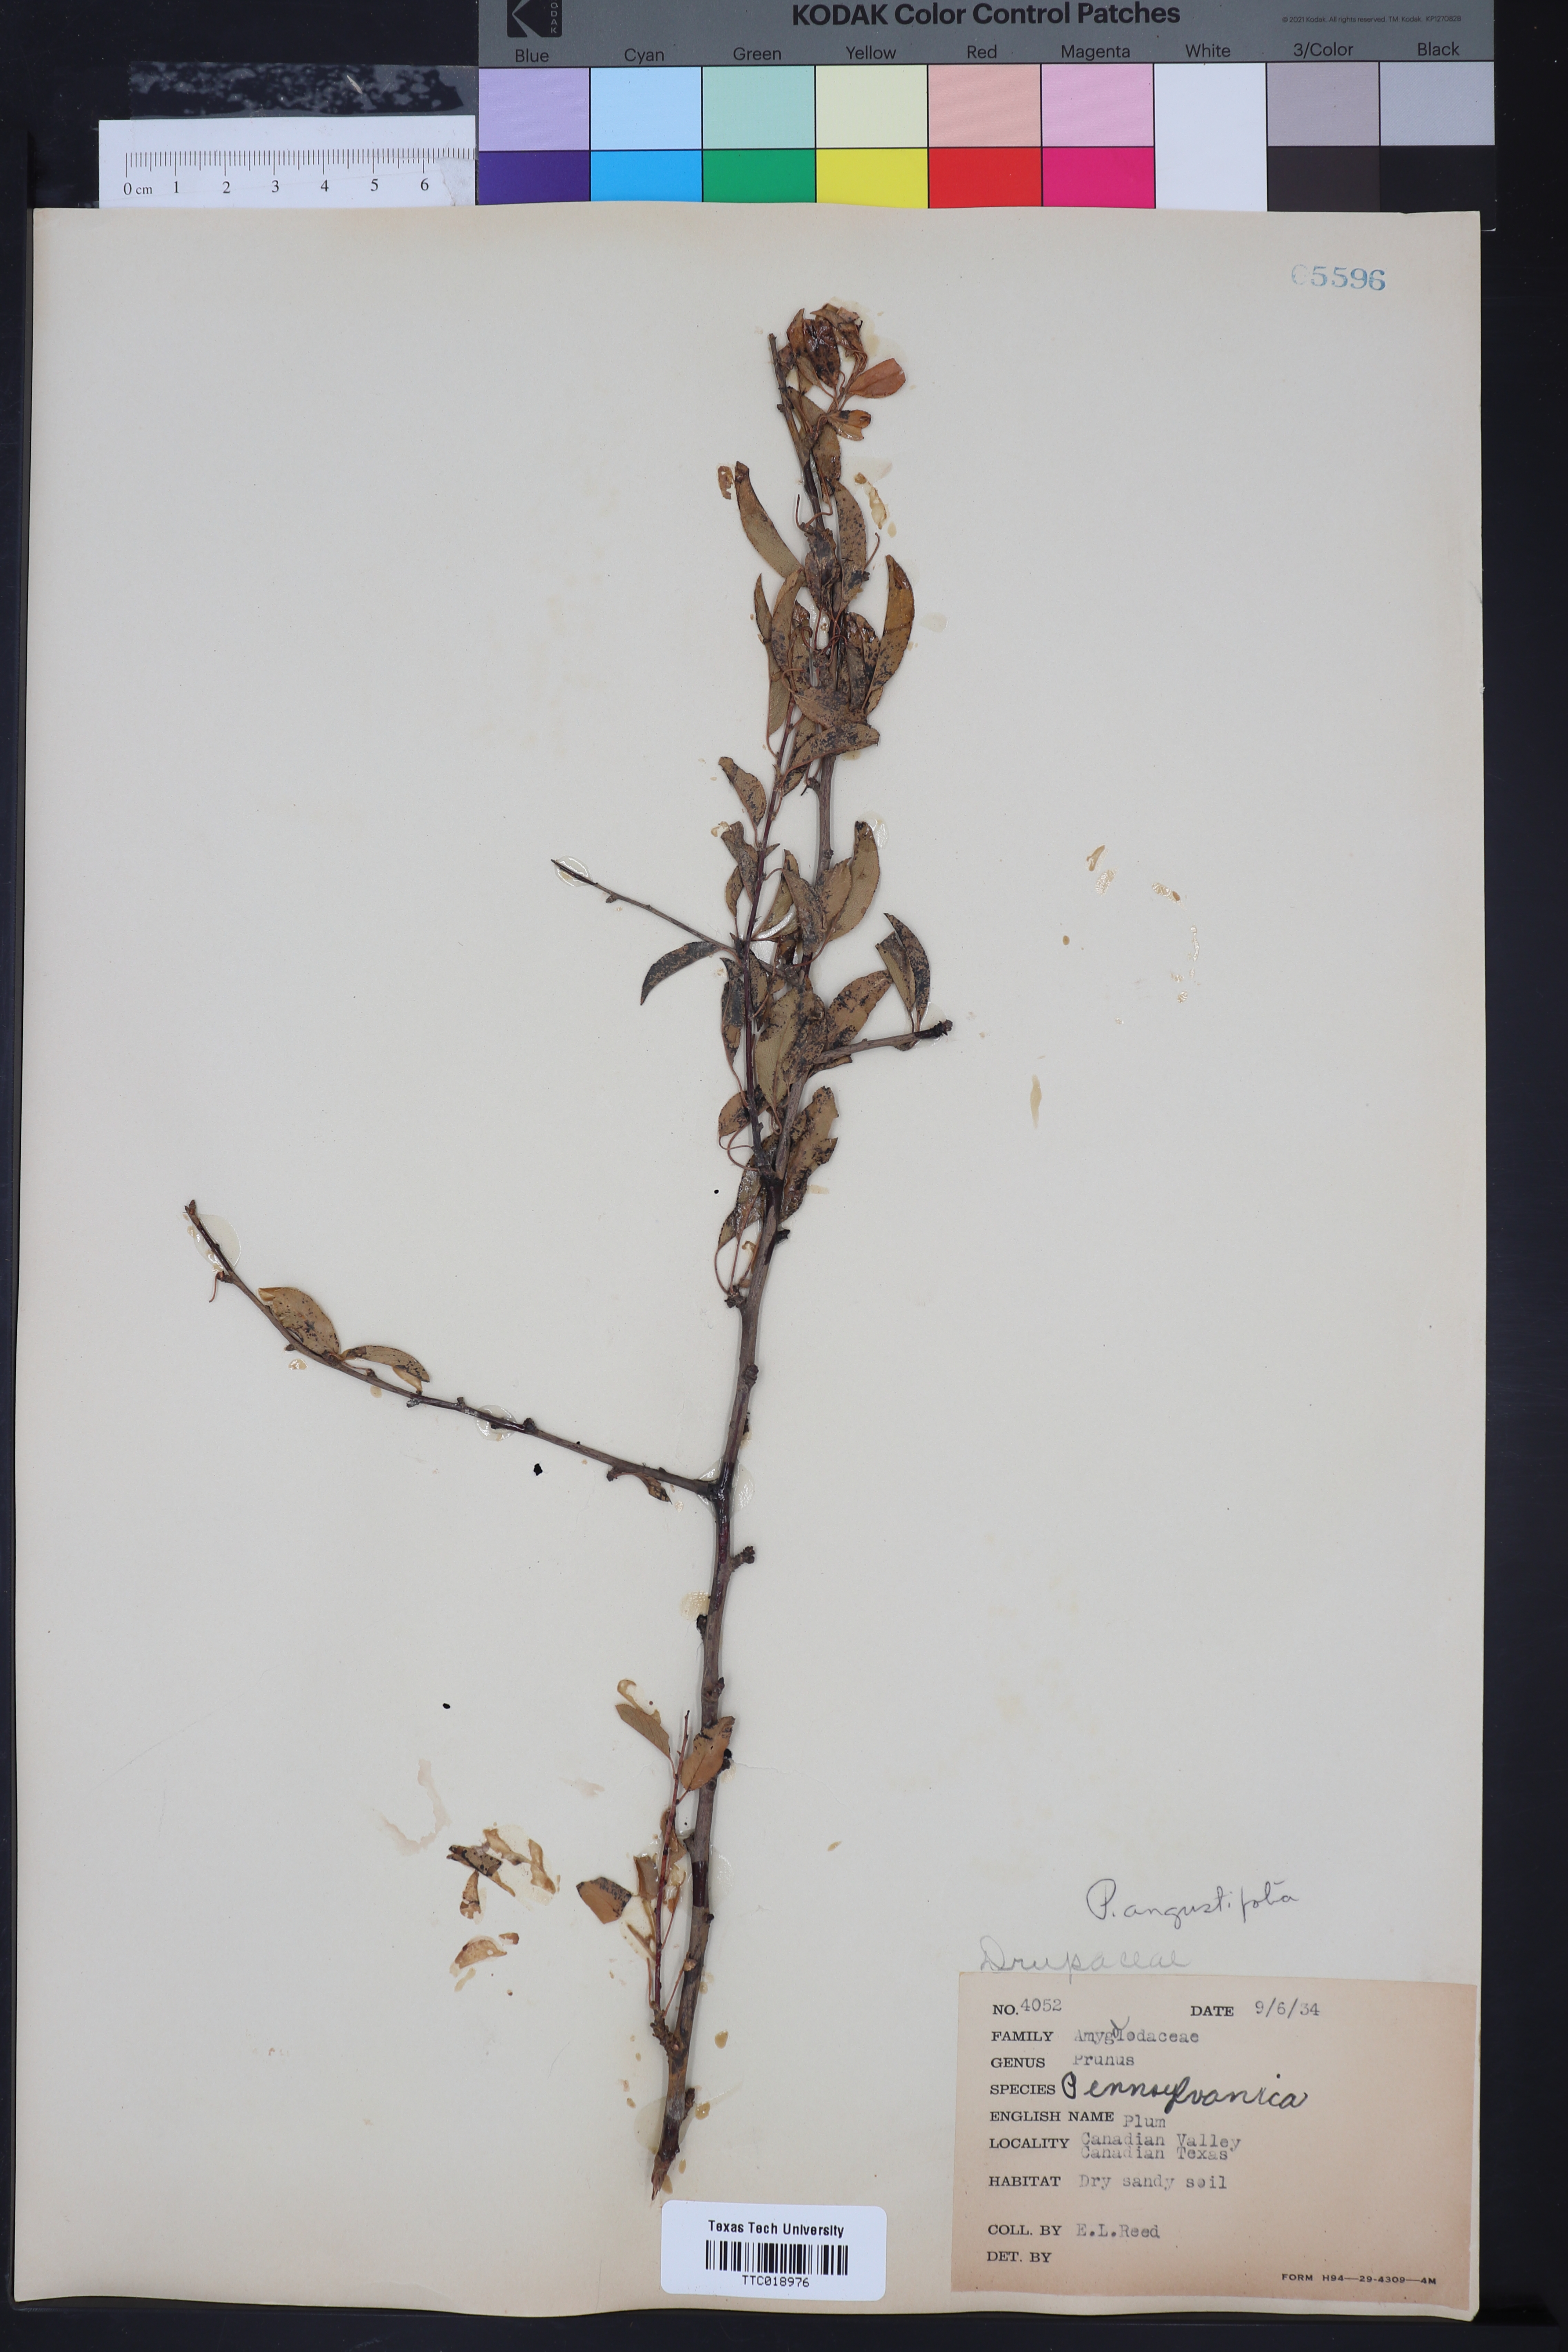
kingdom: Plantae
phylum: Tracheophyta
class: Magnoliopsida
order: Rosales
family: Rosaceae
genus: Prunus
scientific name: Prunus pensylvanica
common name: Pin cherry
